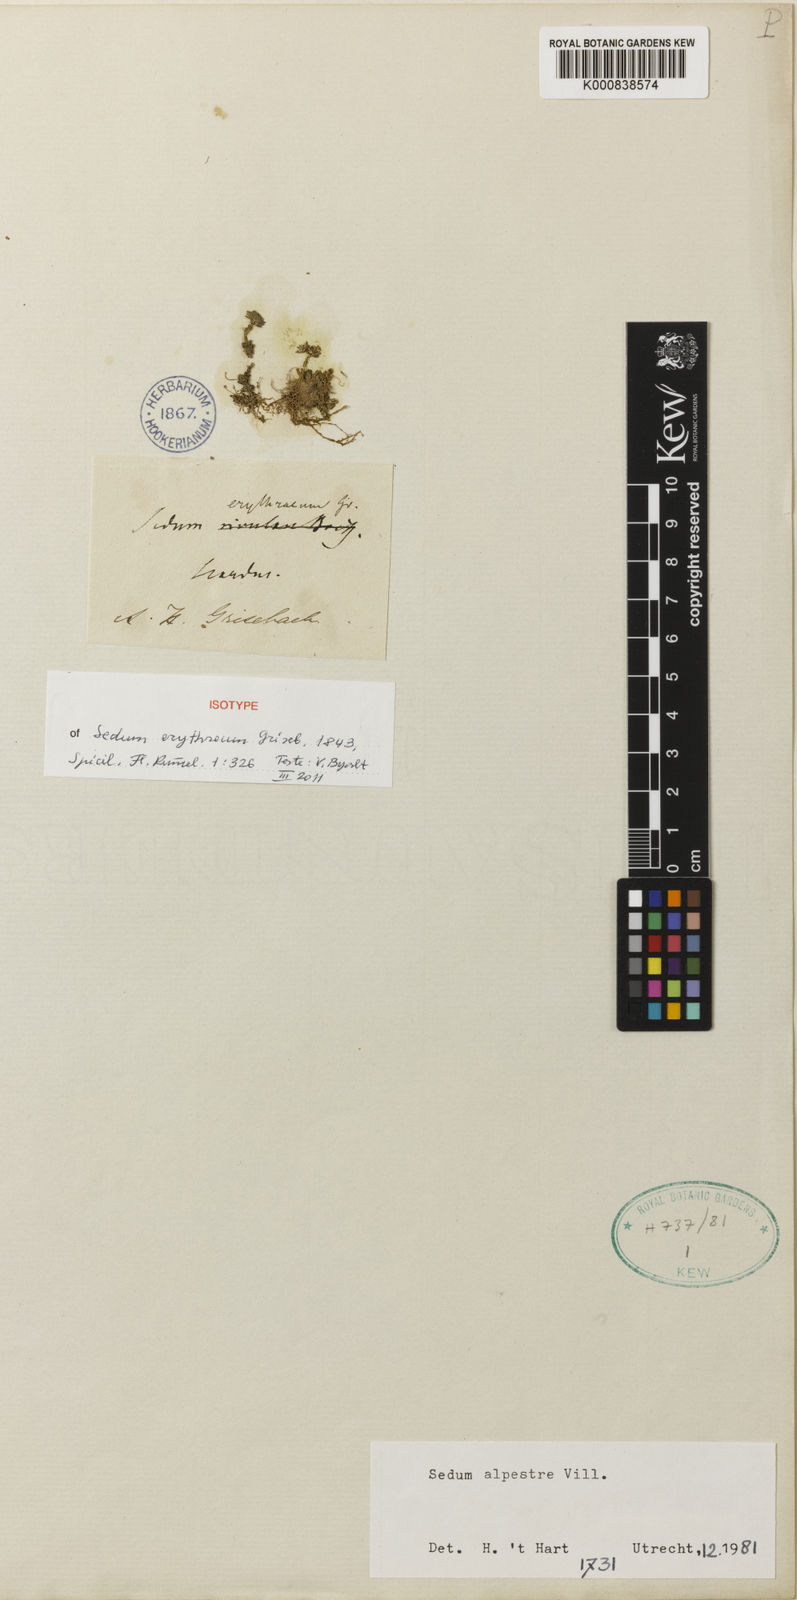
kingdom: Plantae
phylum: Tracheophyta
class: Magnoliopsida
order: Saxifragales
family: Crassulaceae
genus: Sedum
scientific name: Sedum alpestre
